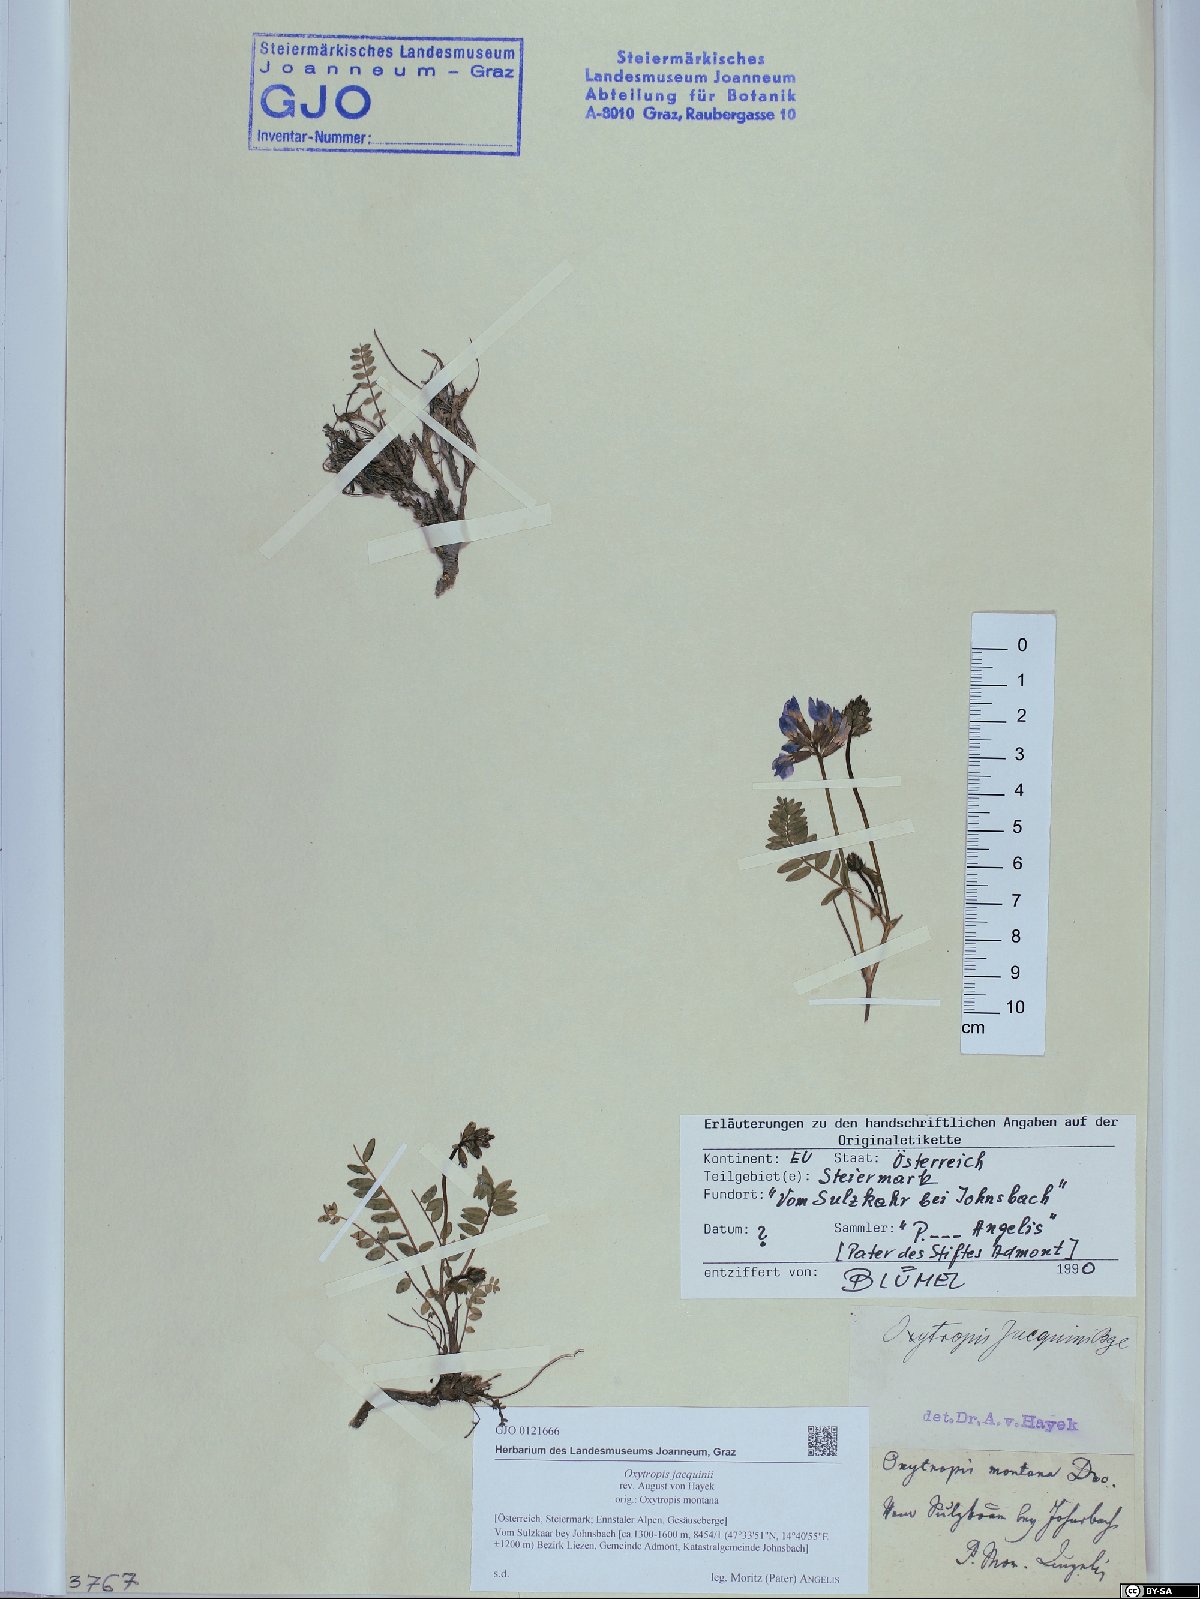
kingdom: Plantae
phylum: Tracheophyta
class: Magnoliopsida
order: Fabales
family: Fabaceae
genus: Oxytropis
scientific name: Oxytropis montana
